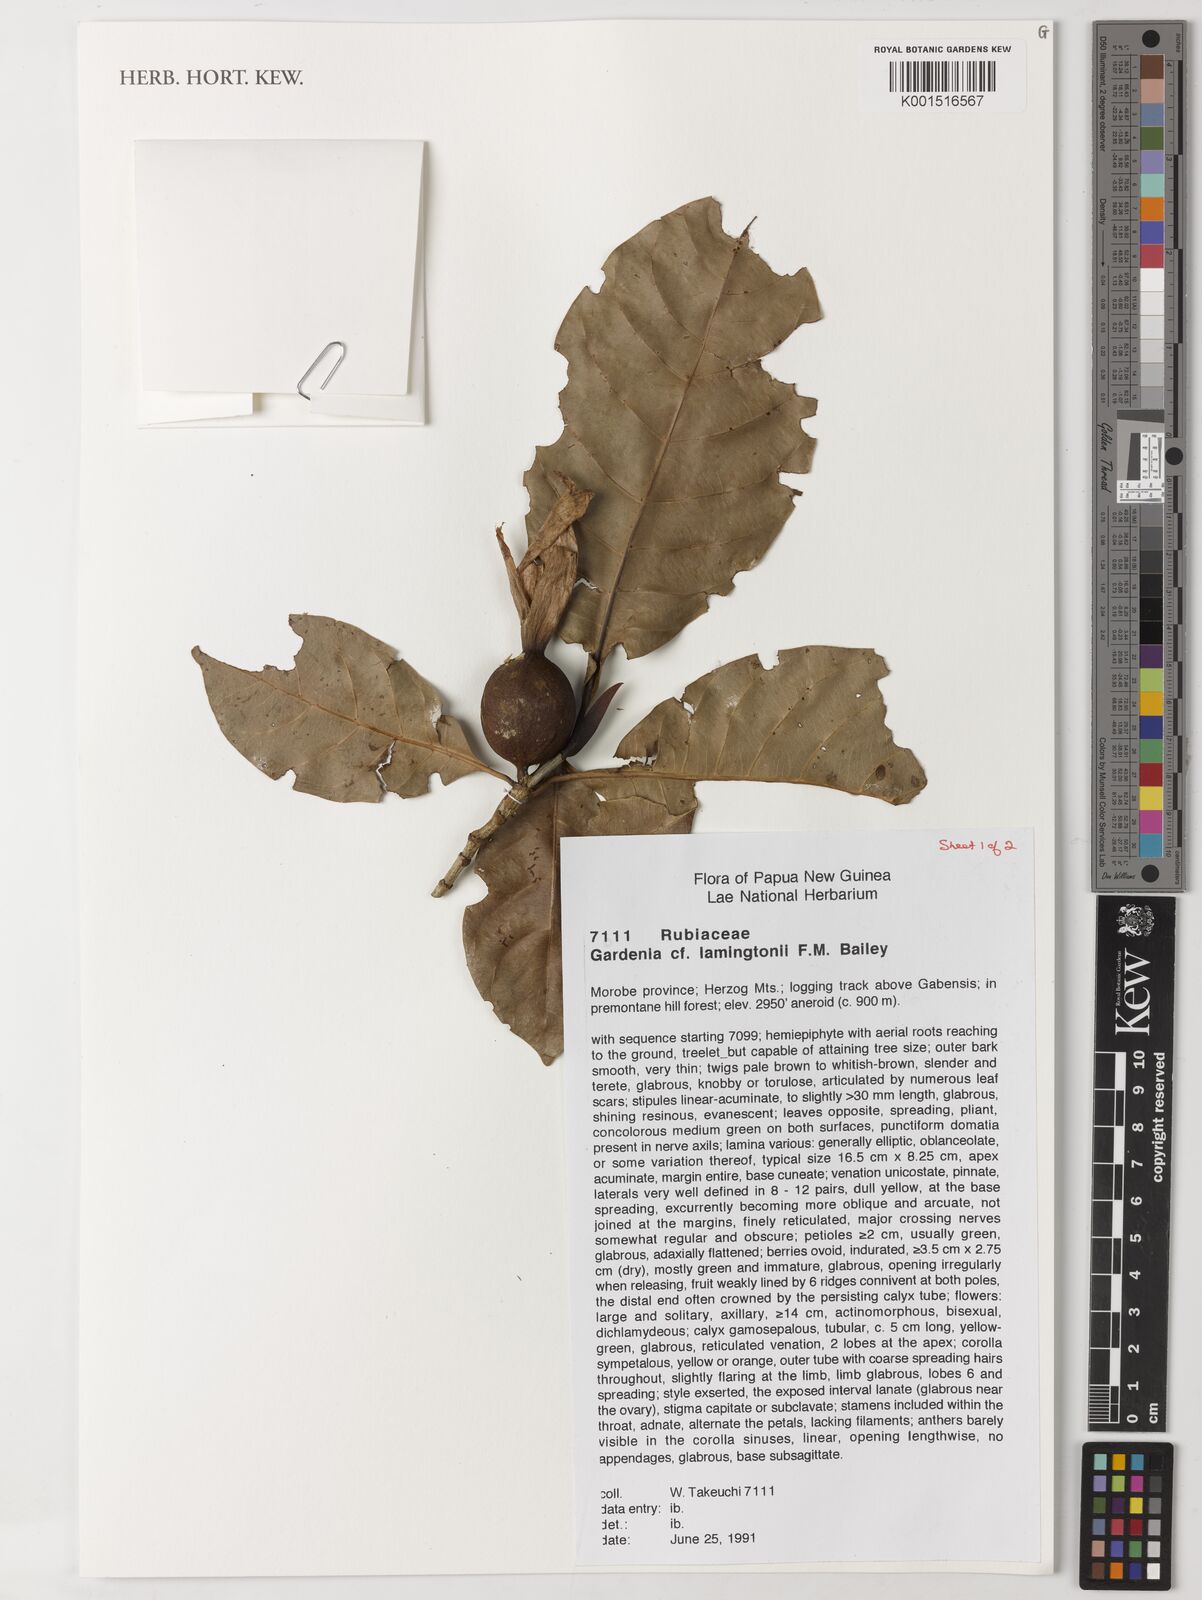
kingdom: Plantae
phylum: Tracheophyta
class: Magnoliopsida
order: Gentianales
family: Rubiaceae
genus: Gardenia
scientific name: Gardenia lamingtonii
